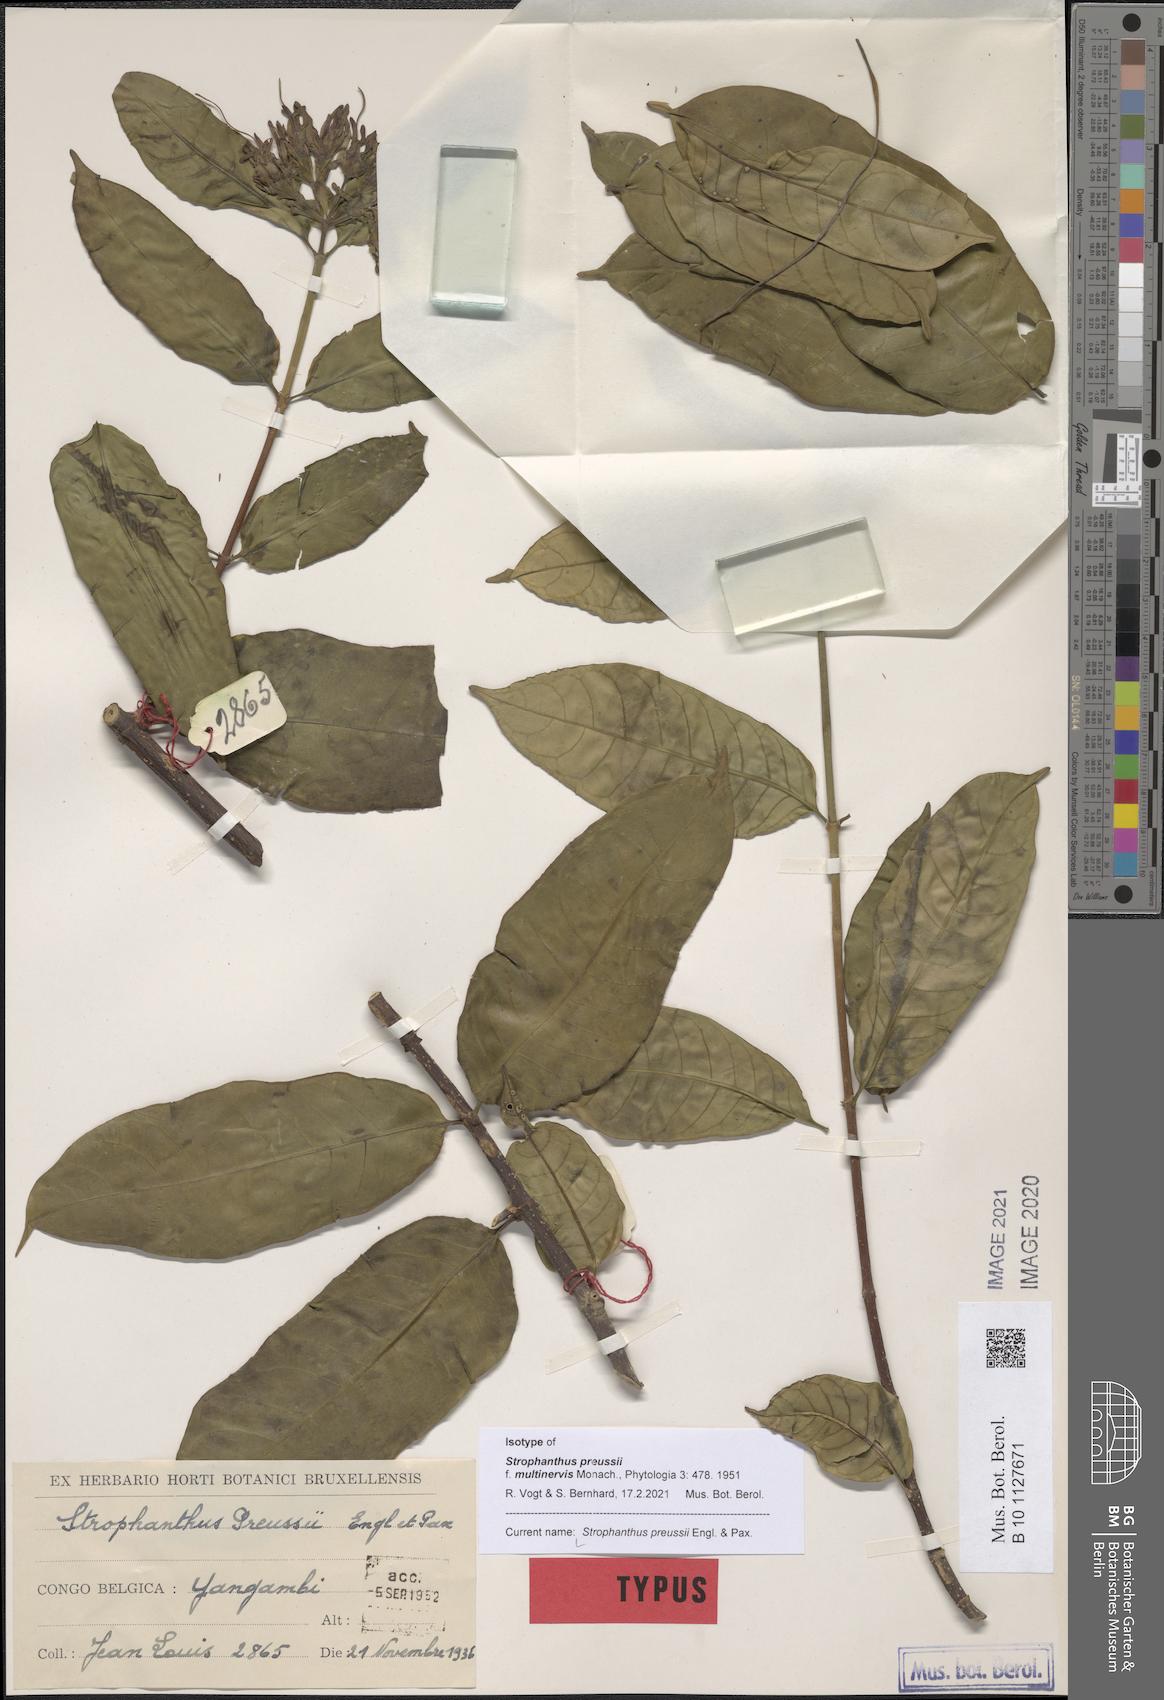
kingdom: Plantae
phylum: Tracheophyta
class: Magnoliopsida
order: Gentianales
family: Apocynaceae
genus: Strophanthus
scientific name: Strophanthus preussii
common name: Medisa-flower
